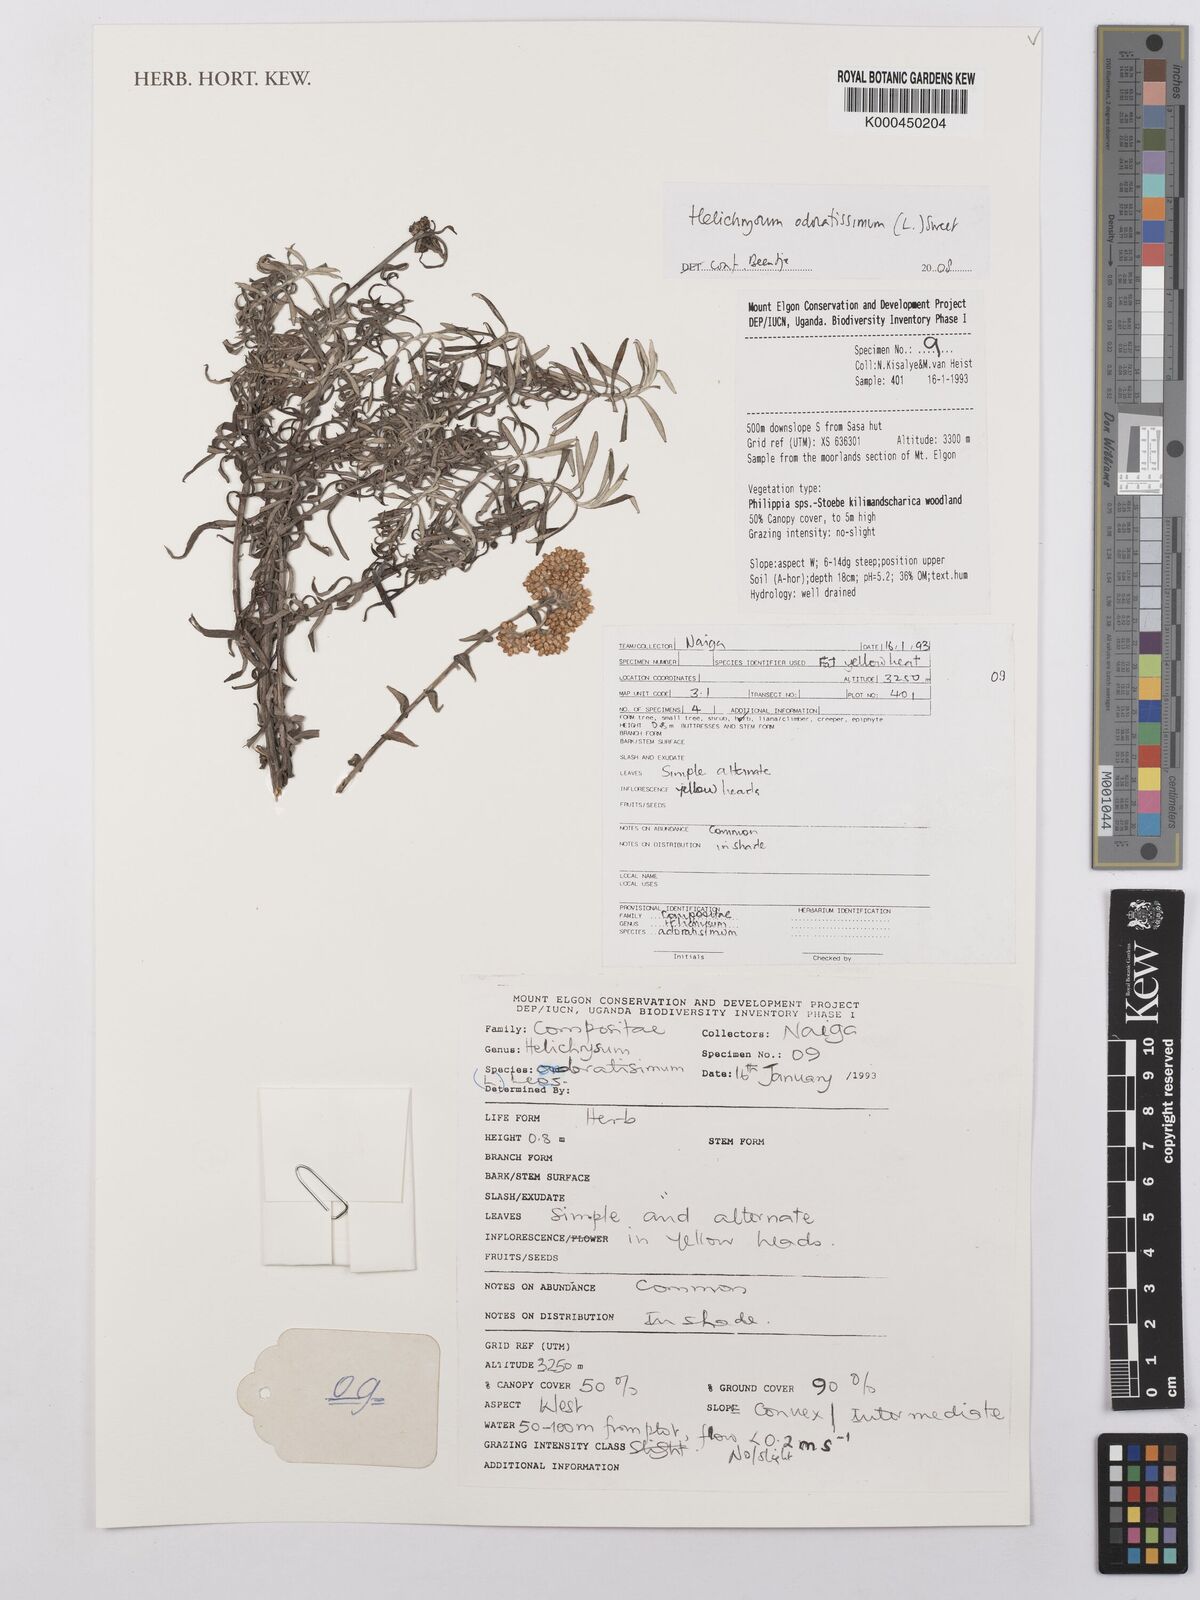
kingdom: Plantae
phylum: Tracheophyta
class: Magnoliopsida
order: Asterales
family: Asteraceae
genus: Helichrysum
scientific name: Helichrysum odoratissimum
